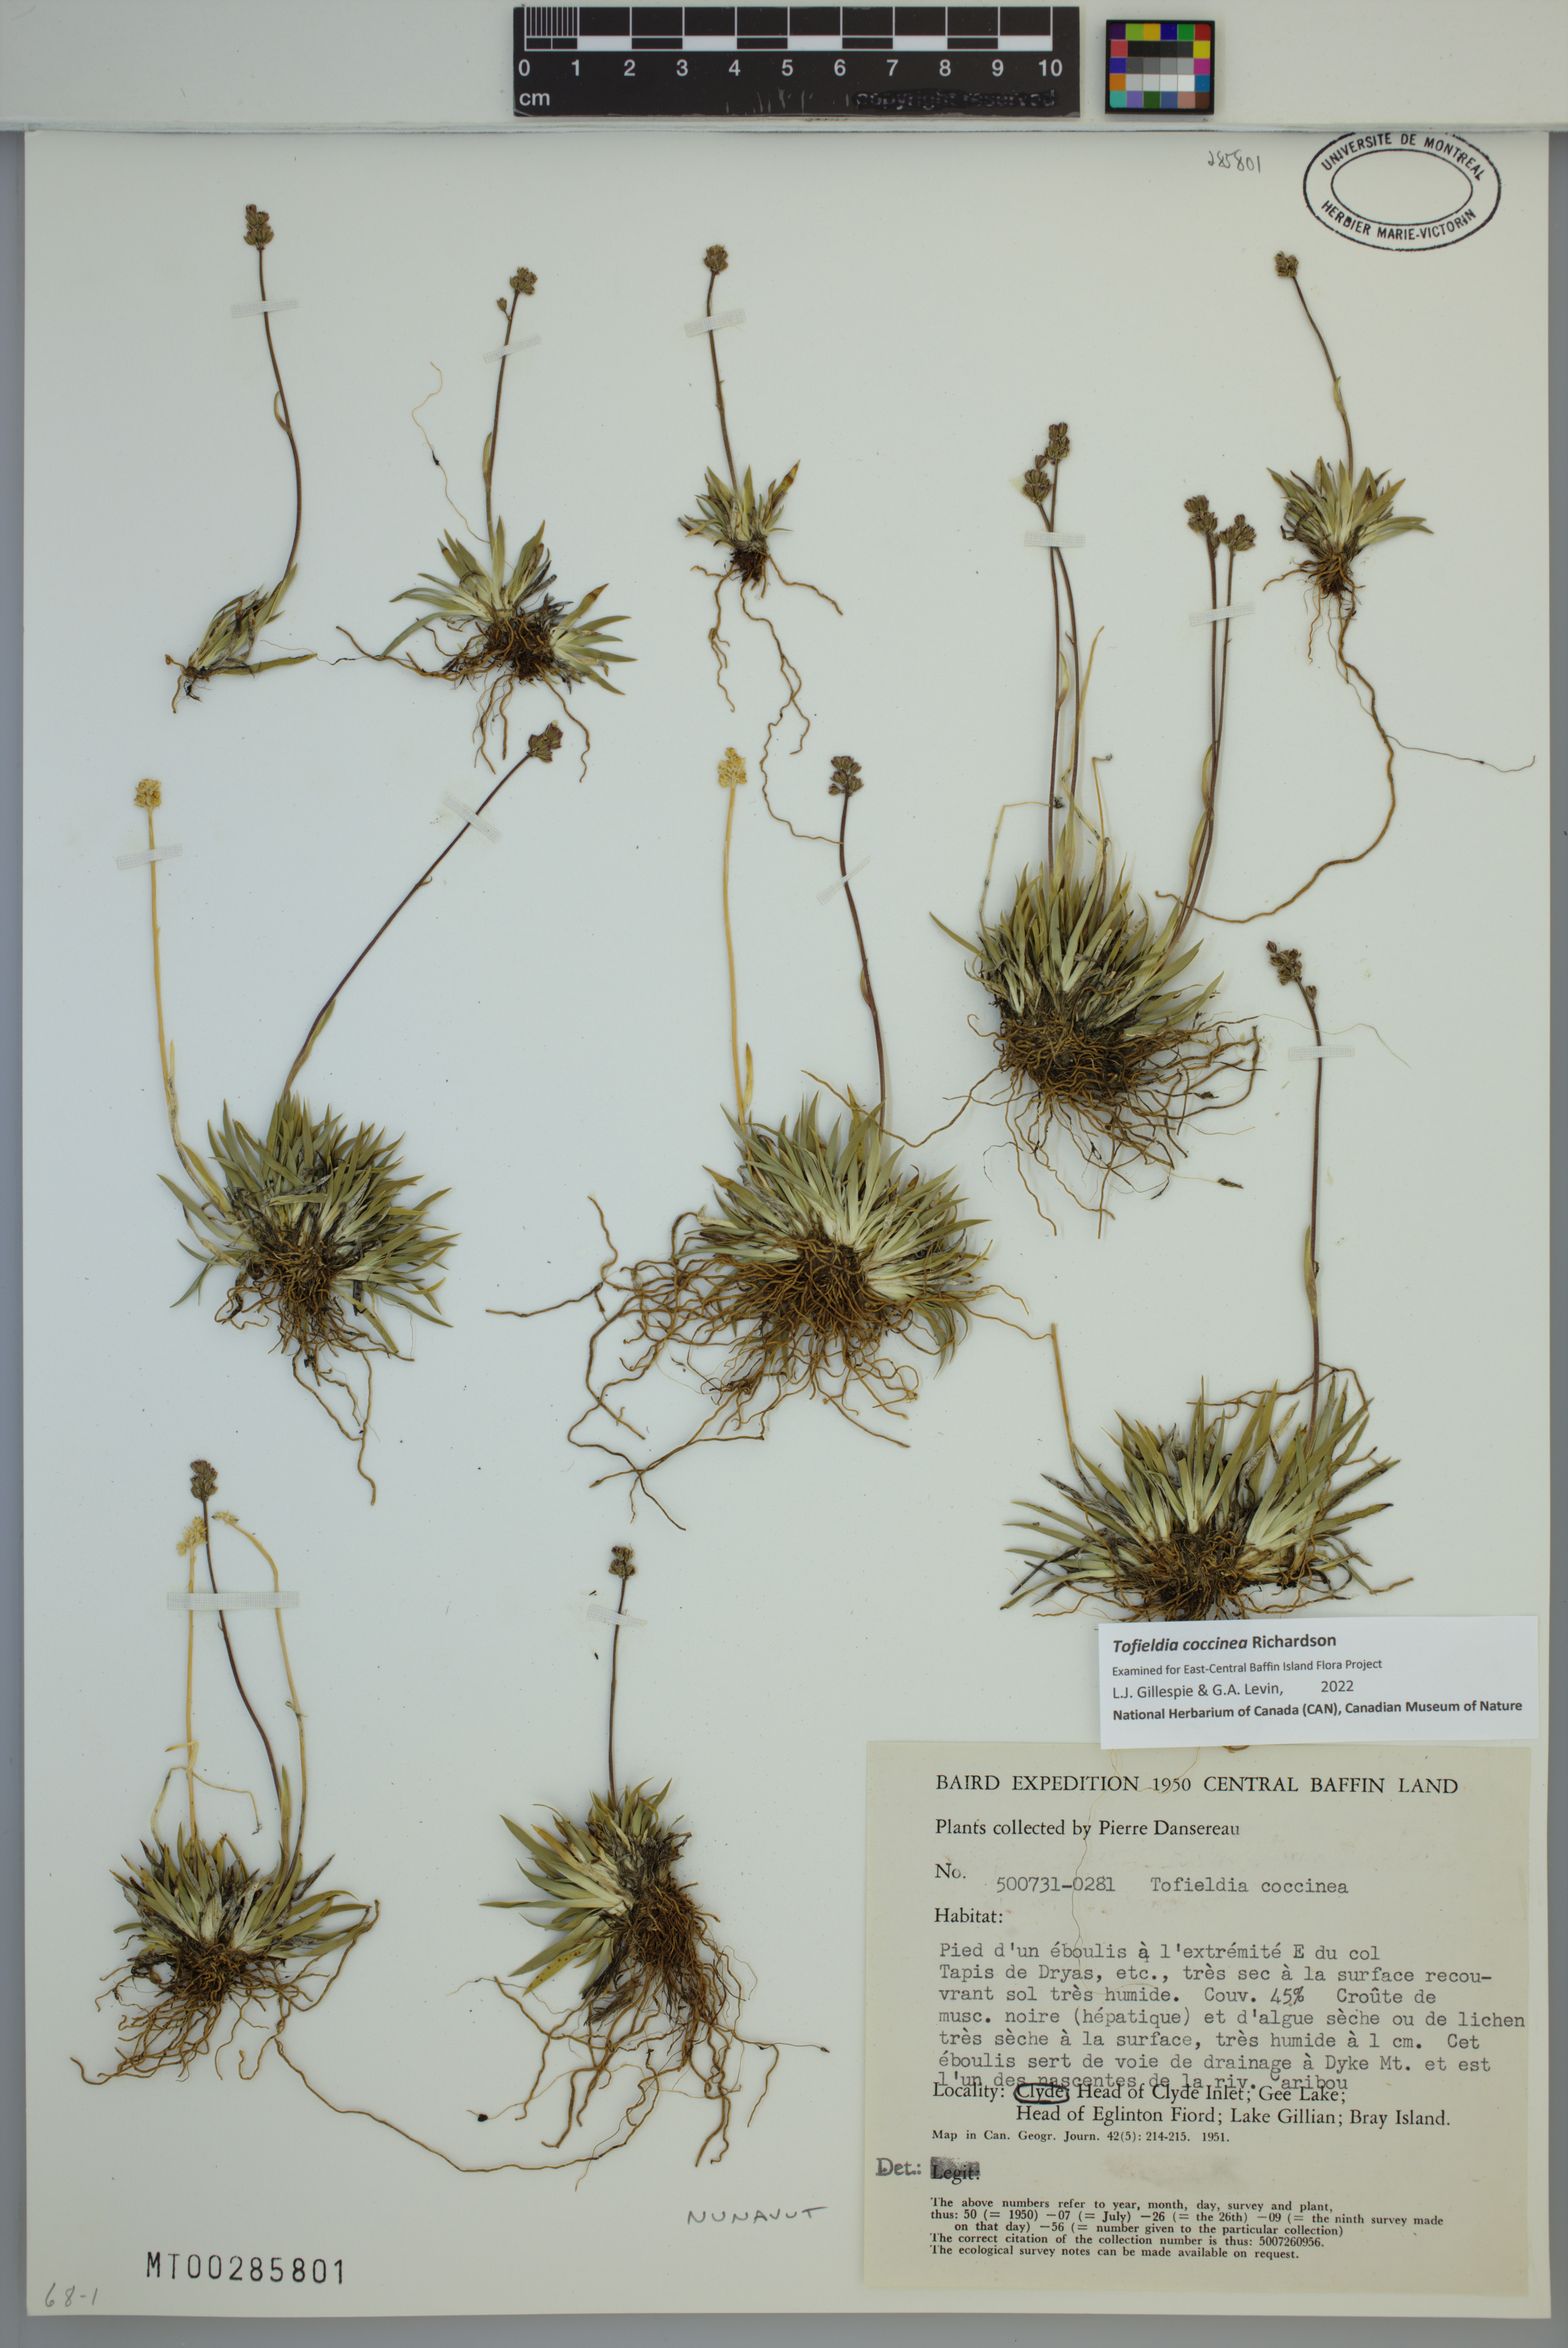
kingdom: Plantae
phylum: Tracheophyta
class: Liliopsida
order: Alismatales
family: Tofieldiaceae
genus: Tofieldia
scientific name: Tofieldia coccinea
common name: Northern false asphodel
